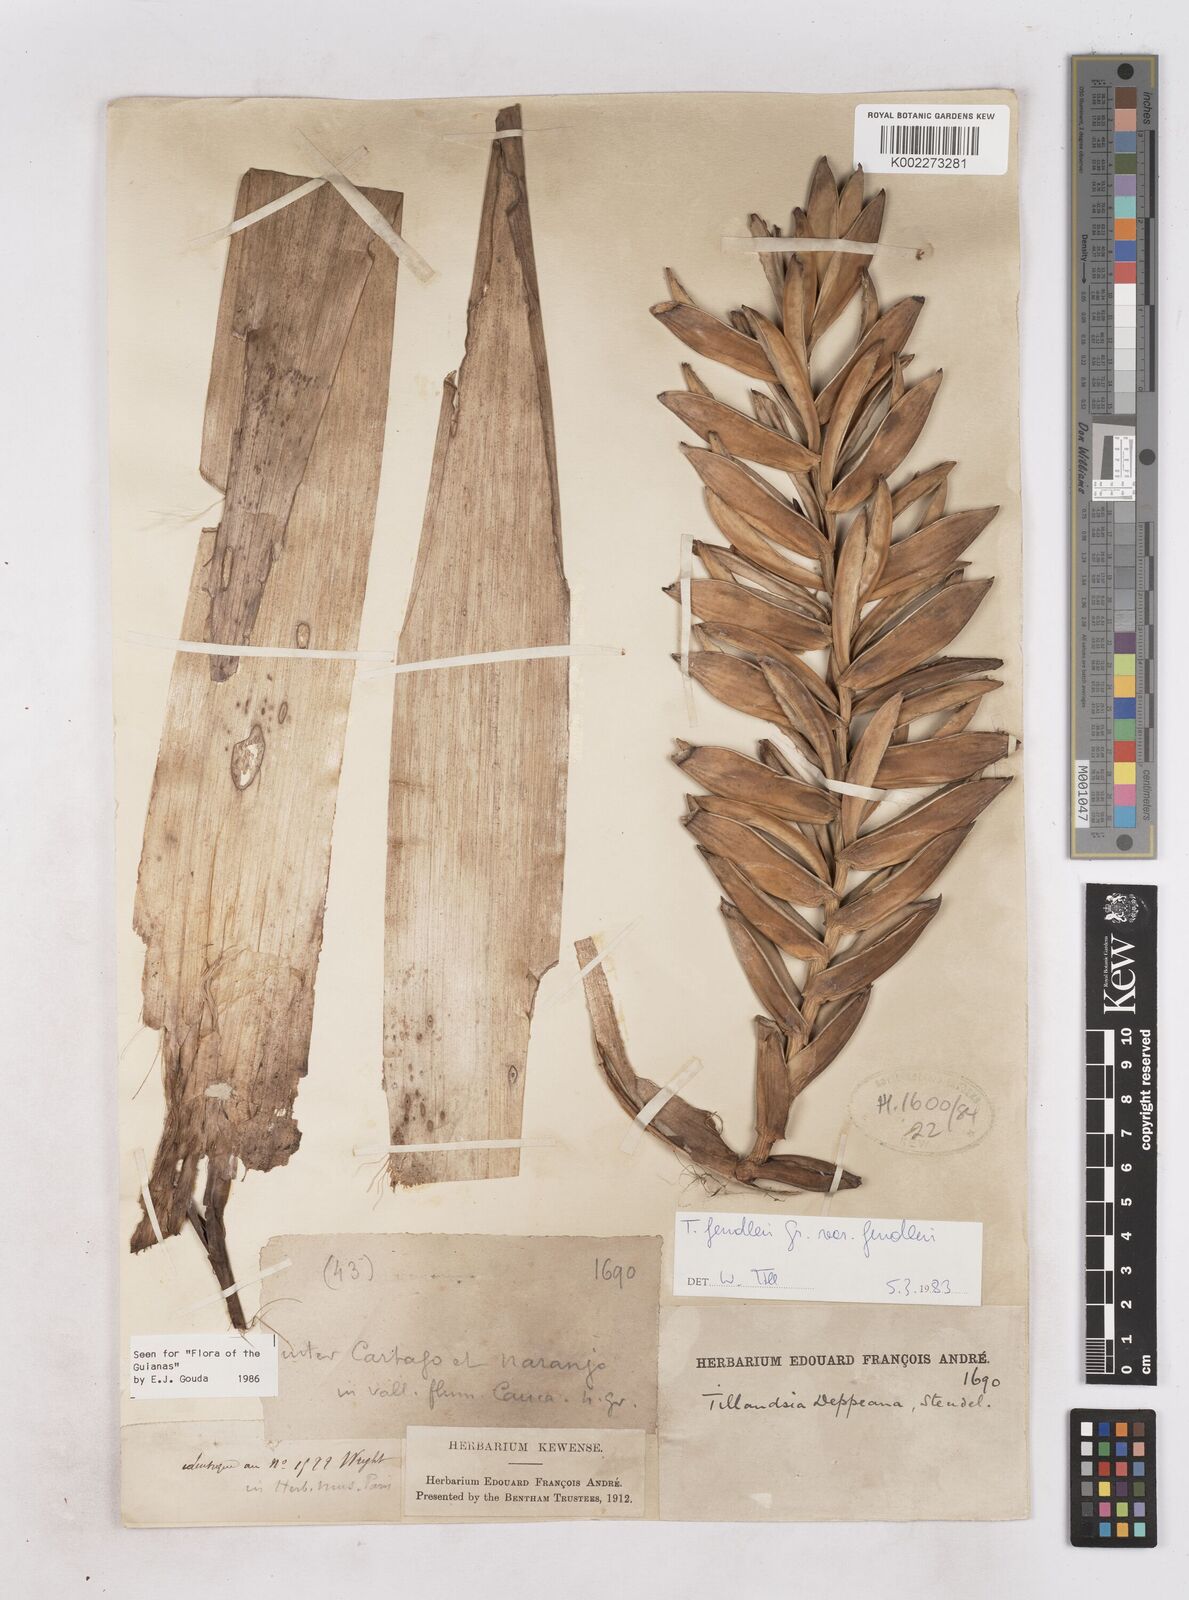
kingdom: Plantae
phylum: Tracheophyta
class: Liliopsida
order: Poales
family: Bromeliaceae
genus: Tillandsia
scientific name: Tillandsia fendleri
